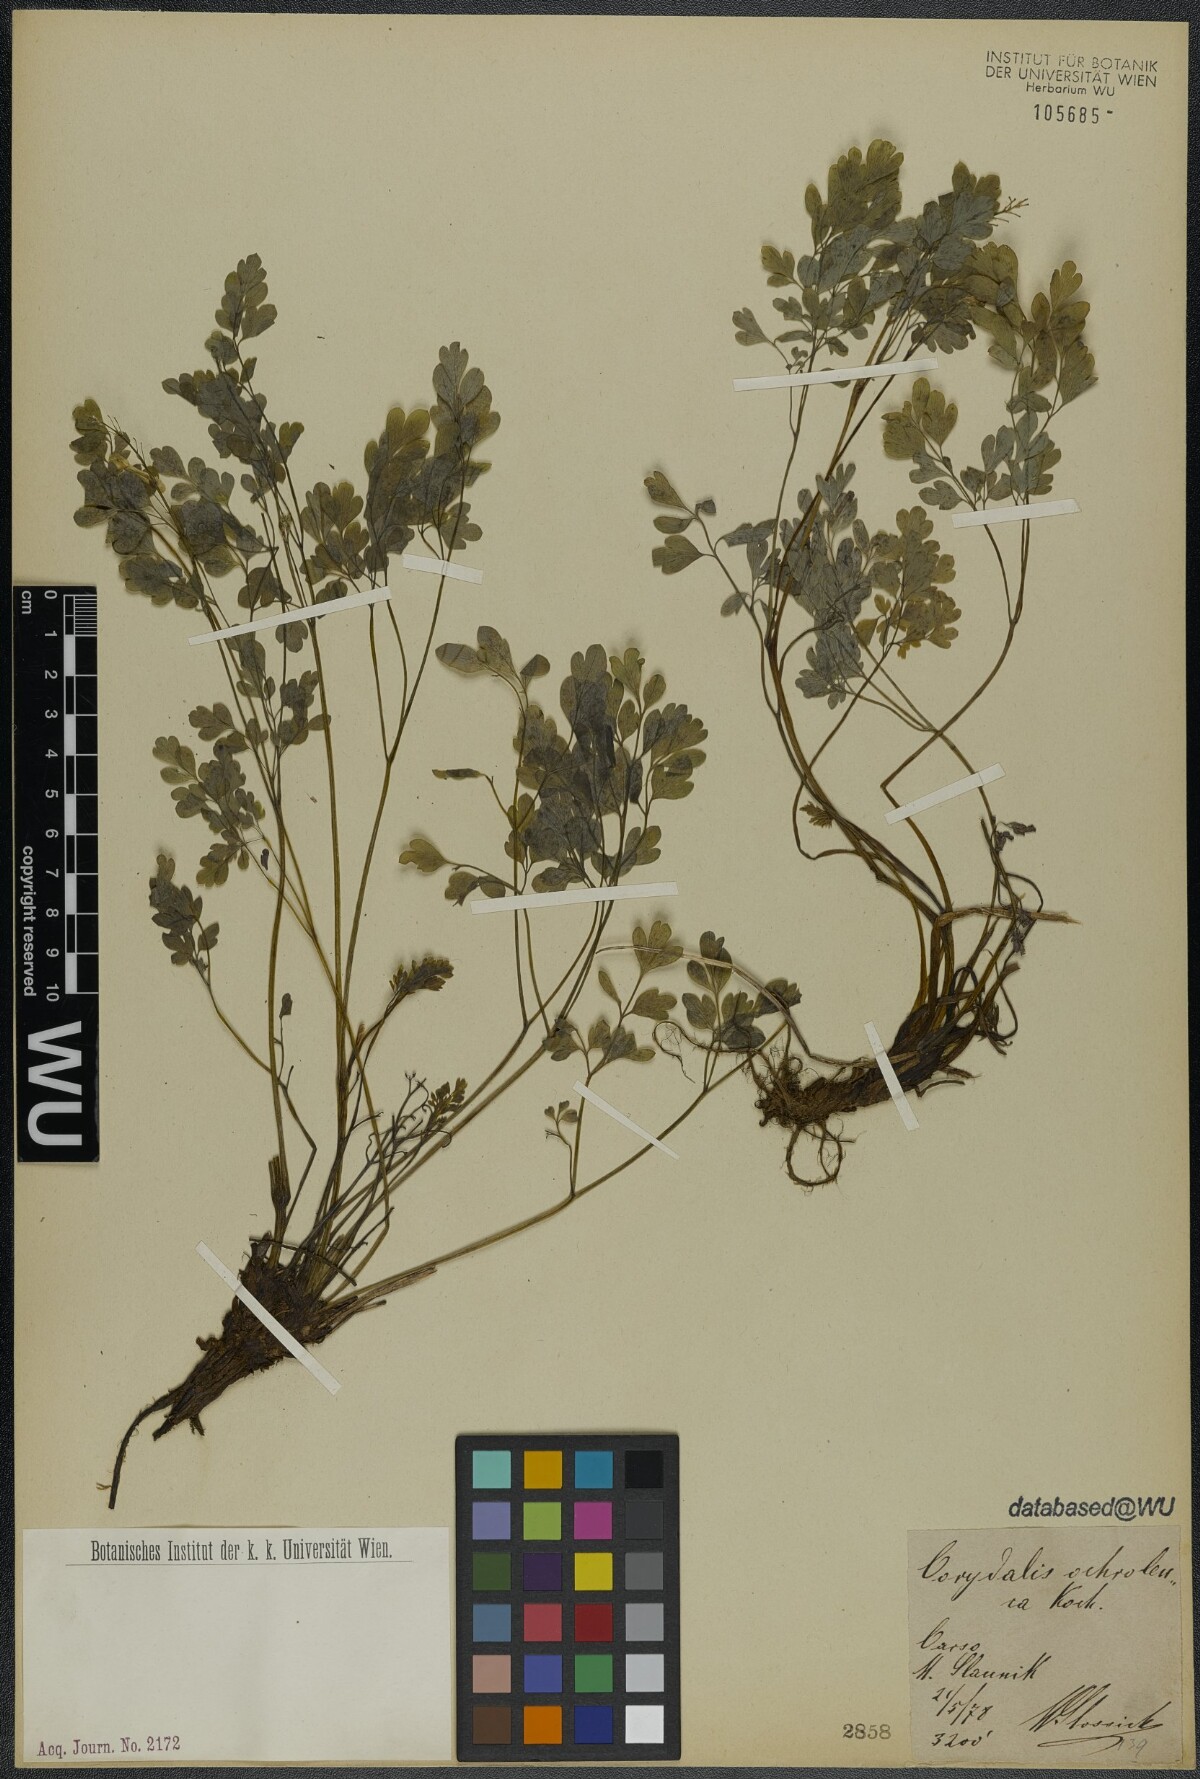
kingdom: Plantae
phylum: Tracheophyta
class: Magnoliopsida
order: Ranunculales
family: Papaveraceae
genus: Pseudofumaria
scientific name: Pseudofumaria alba
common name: Pale corydalis
